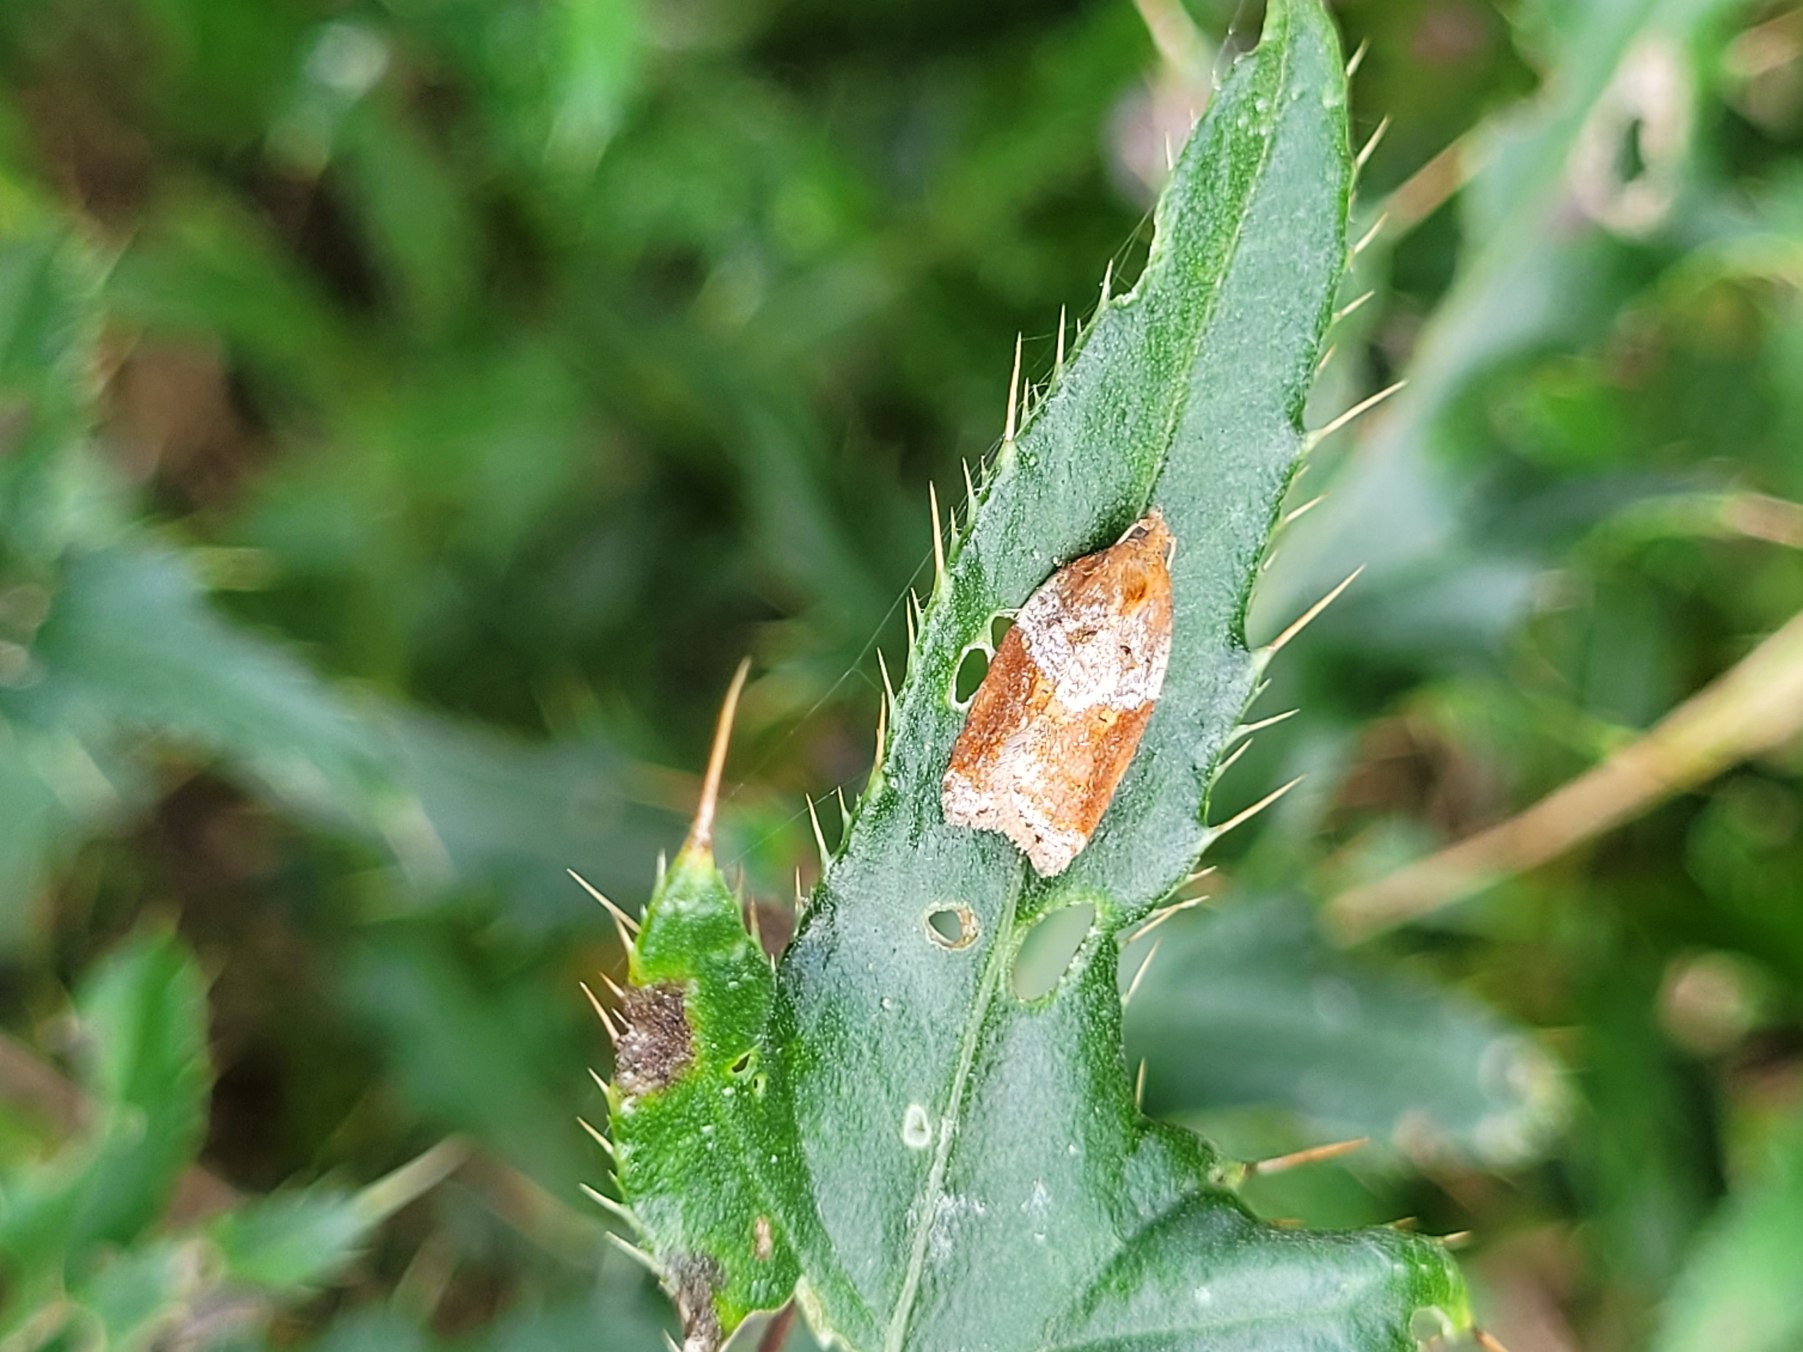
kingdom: Animalia
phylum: Arthropoda
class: Insecta
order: Lepidoptera
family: Tortricidae
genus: Acleris
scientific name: Acleris laterana
